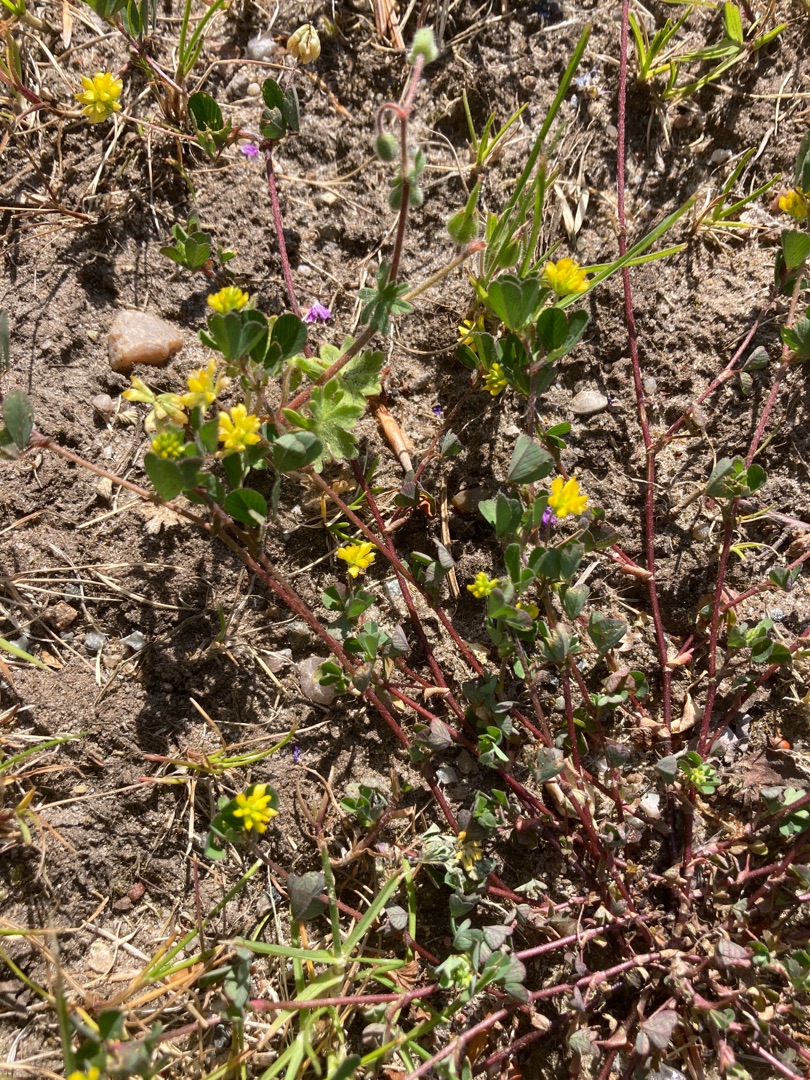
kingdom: Plantae
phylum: Tracheophyta
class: Magnoliopsida
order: Fabales
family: Fabaceae
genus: Trifolium
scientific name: Trifolium dubium
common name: Fin kløver
